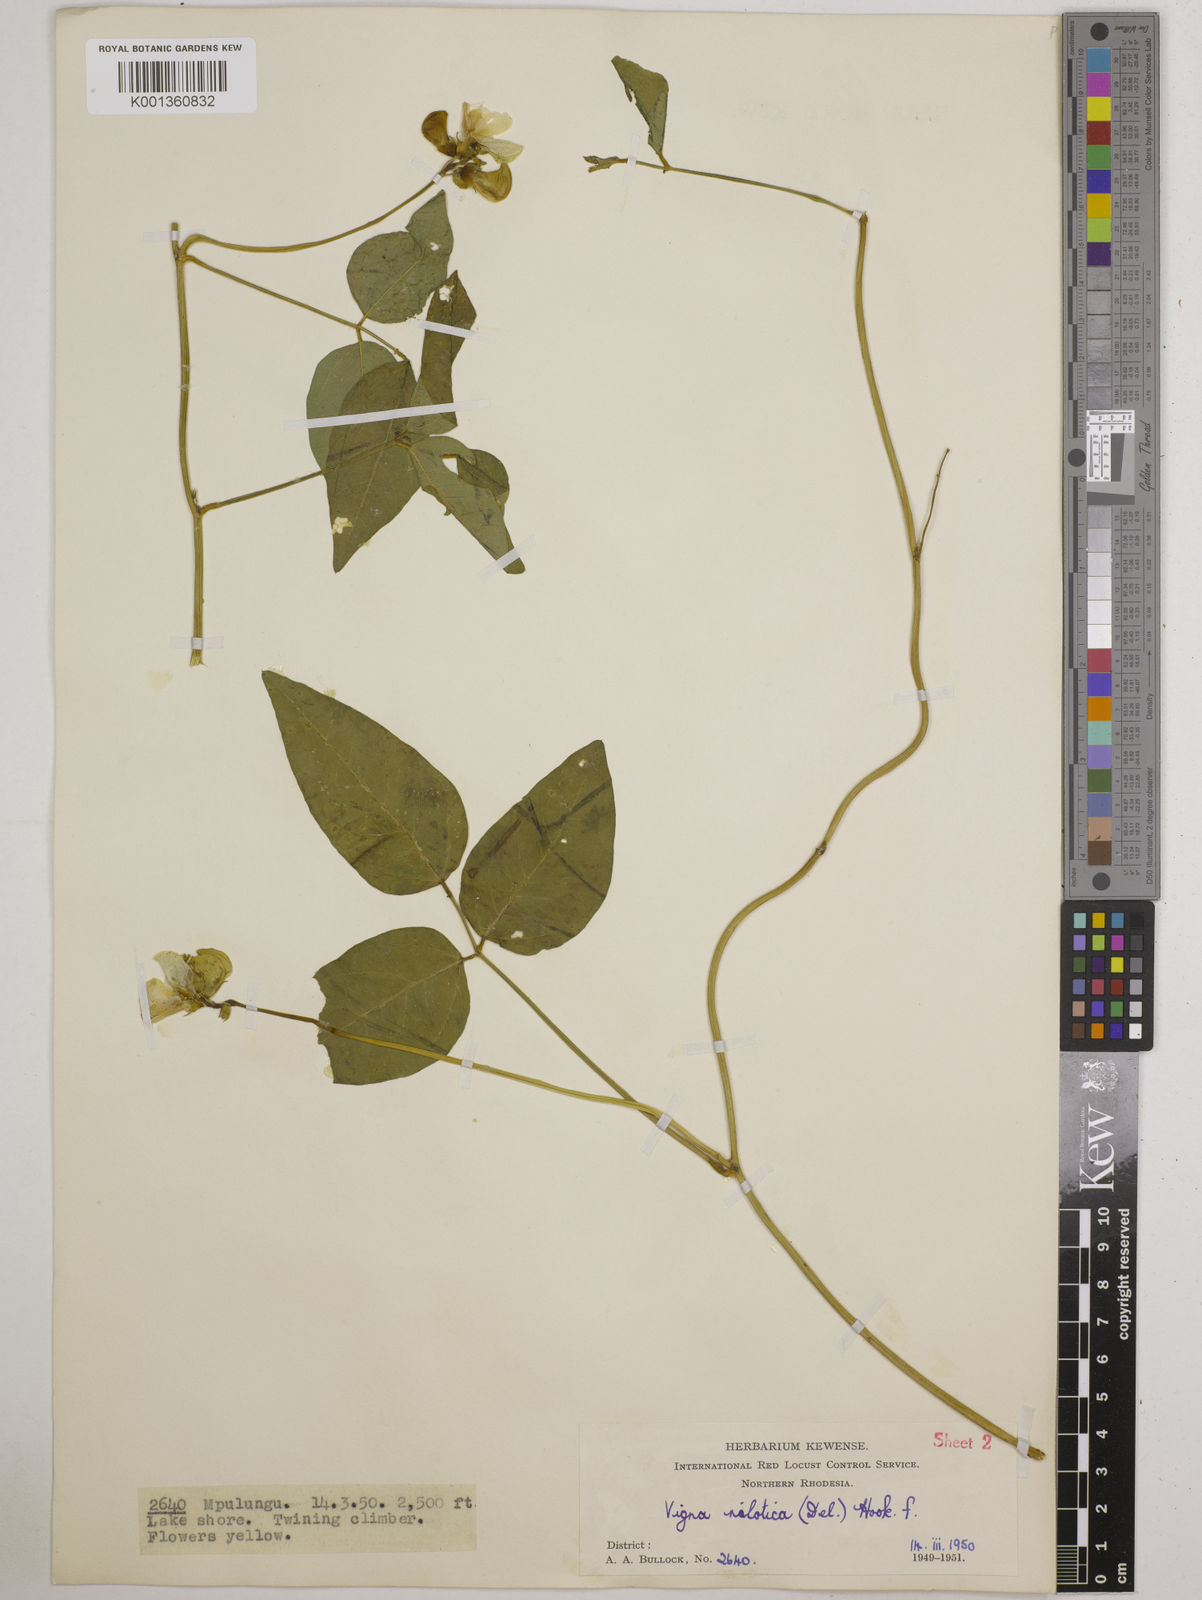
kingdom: Plantae
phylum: Tracheophyta
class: Magnoliopsida
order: Fabales
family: Fabaceae
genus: Vigna
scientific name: Vigna luteola
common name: Hairypod cowpea
